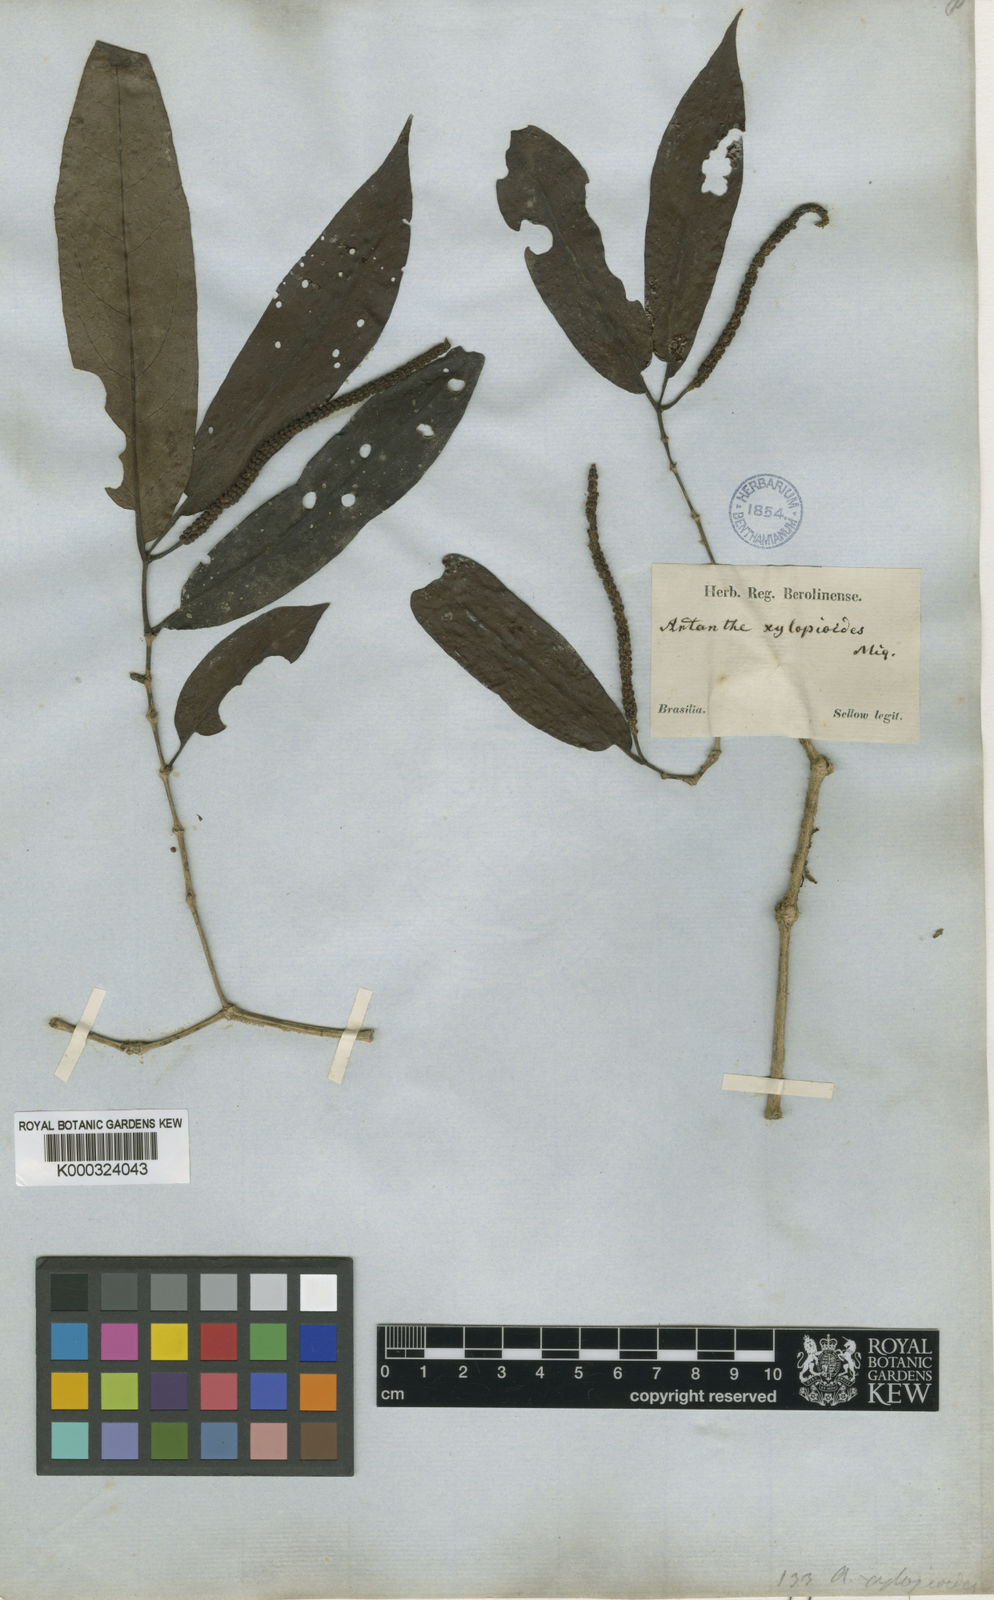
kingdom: Plantae
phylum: Tracheophyta
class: Magnoliopsida
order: Piperales
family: Piperaceae
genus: Piper
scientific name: Piper falcifolium
